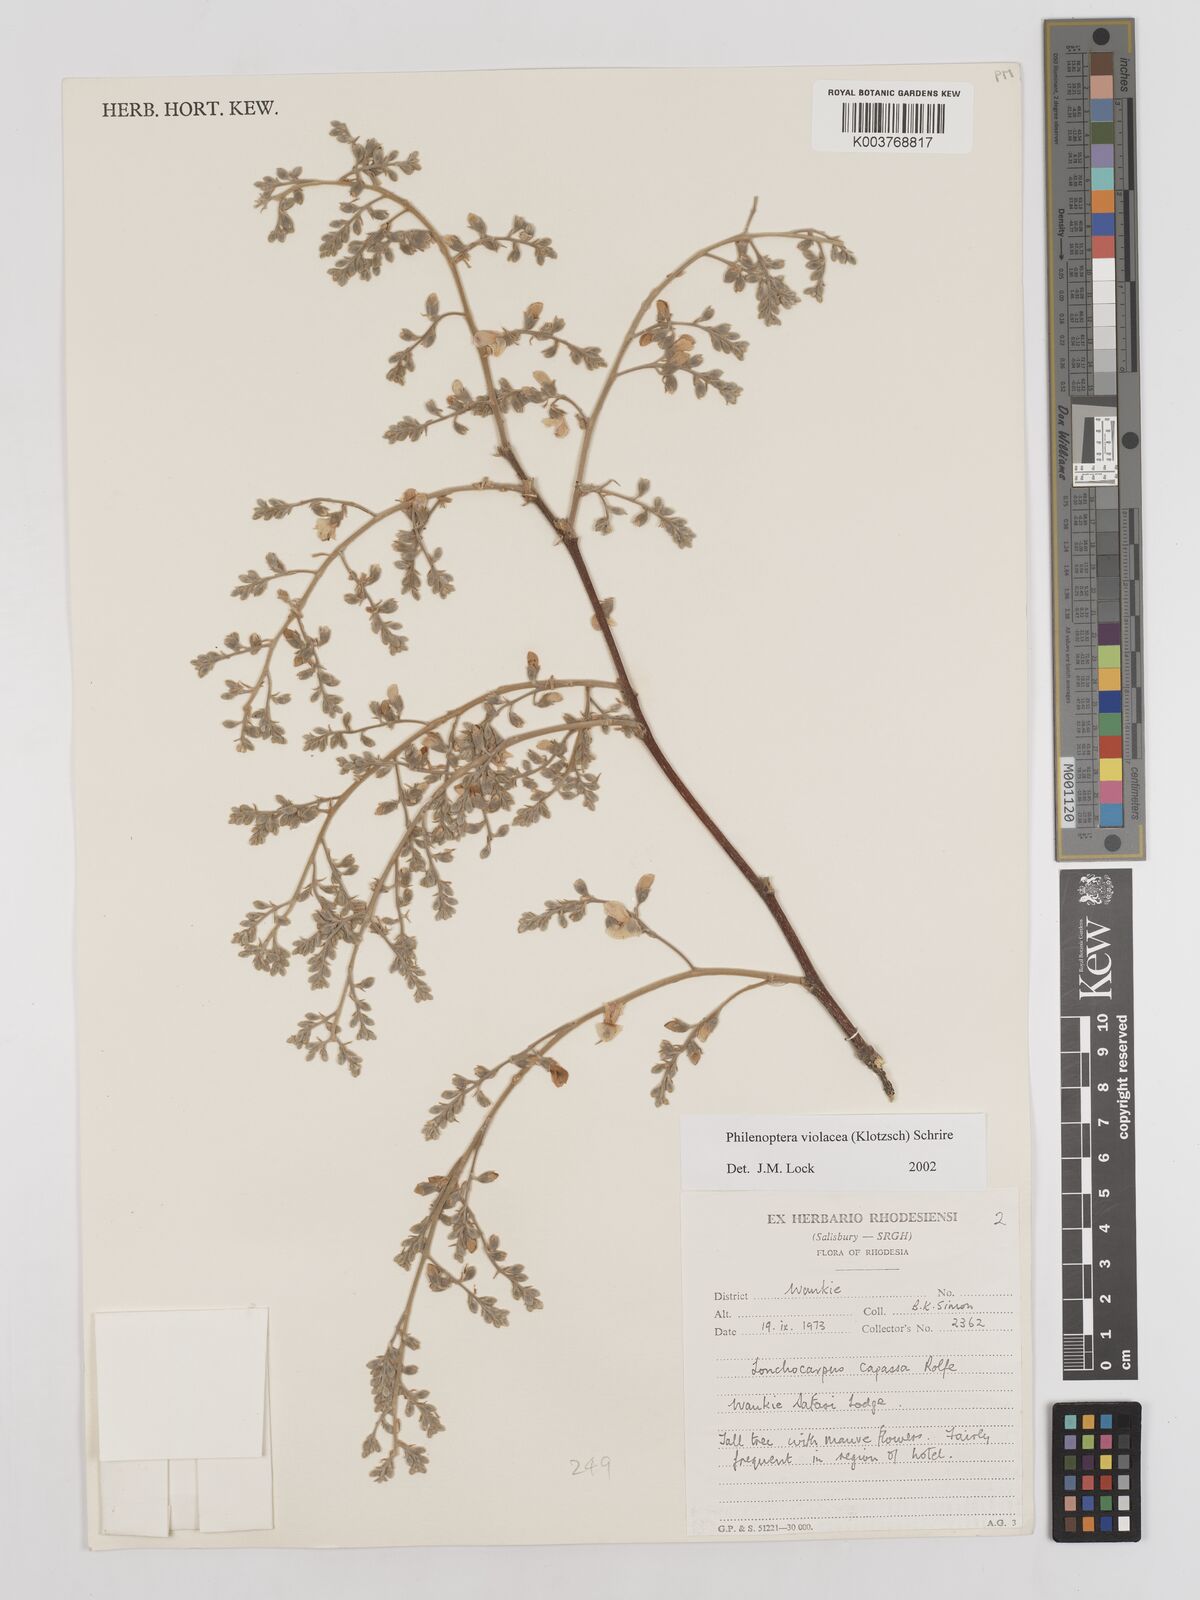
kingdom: Plantae
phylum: Tracheophyta
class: Magnoliopsida
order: Fabales
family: Fabaceae
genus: Philenoptera
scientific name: Philenoptera violacea
